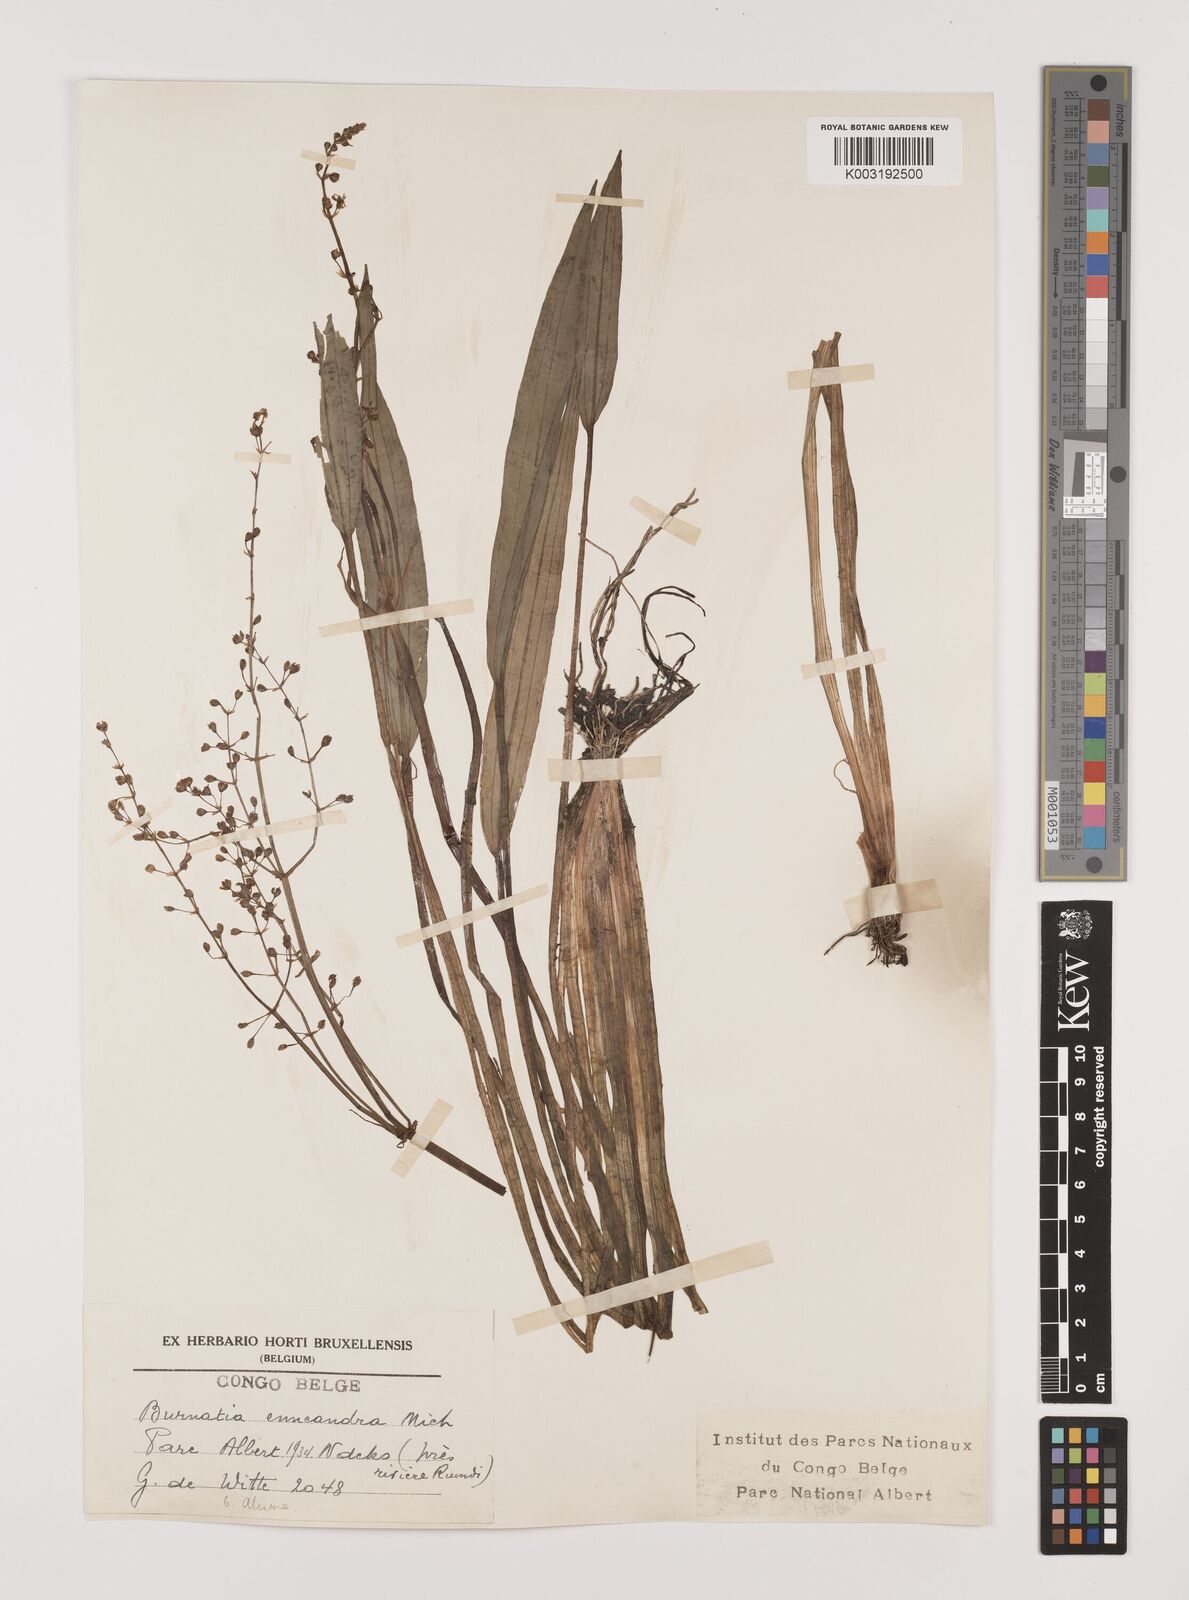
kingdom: Plantae
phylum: Tracheophyta
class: Liliopsida
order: Alismatales
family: Alismataceae
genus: Burnatia
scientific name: Burnatia enneandra
